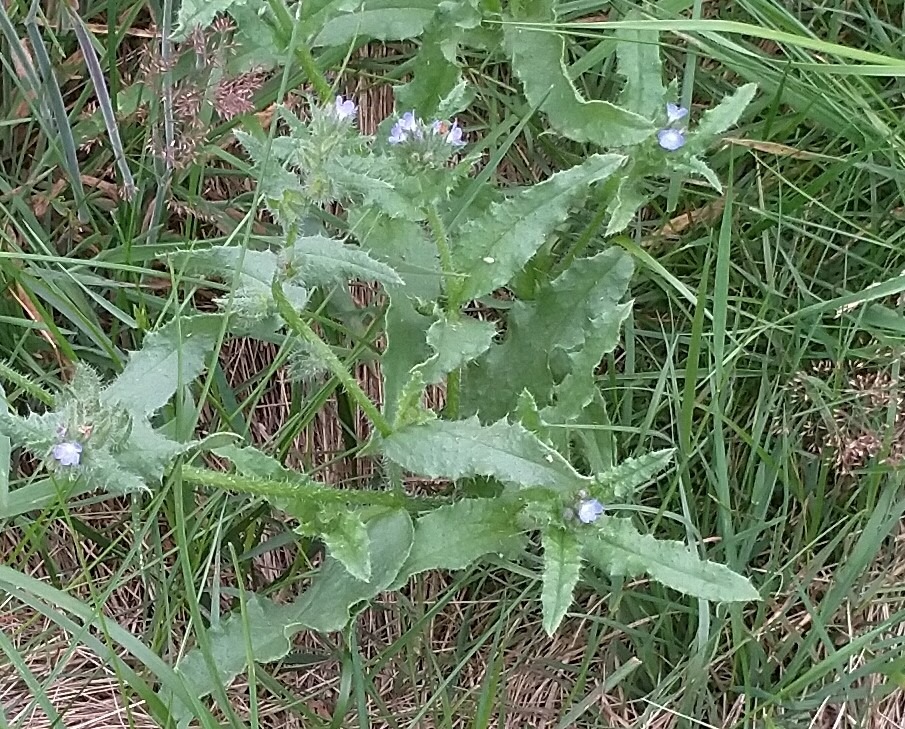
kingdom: Plantae
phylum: Tracheophyta
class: Magnoliopsida
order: Boraginales
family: Boraginaceae
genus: Lycopsis
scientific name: Lycopsis arvensis
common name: Krumhals
